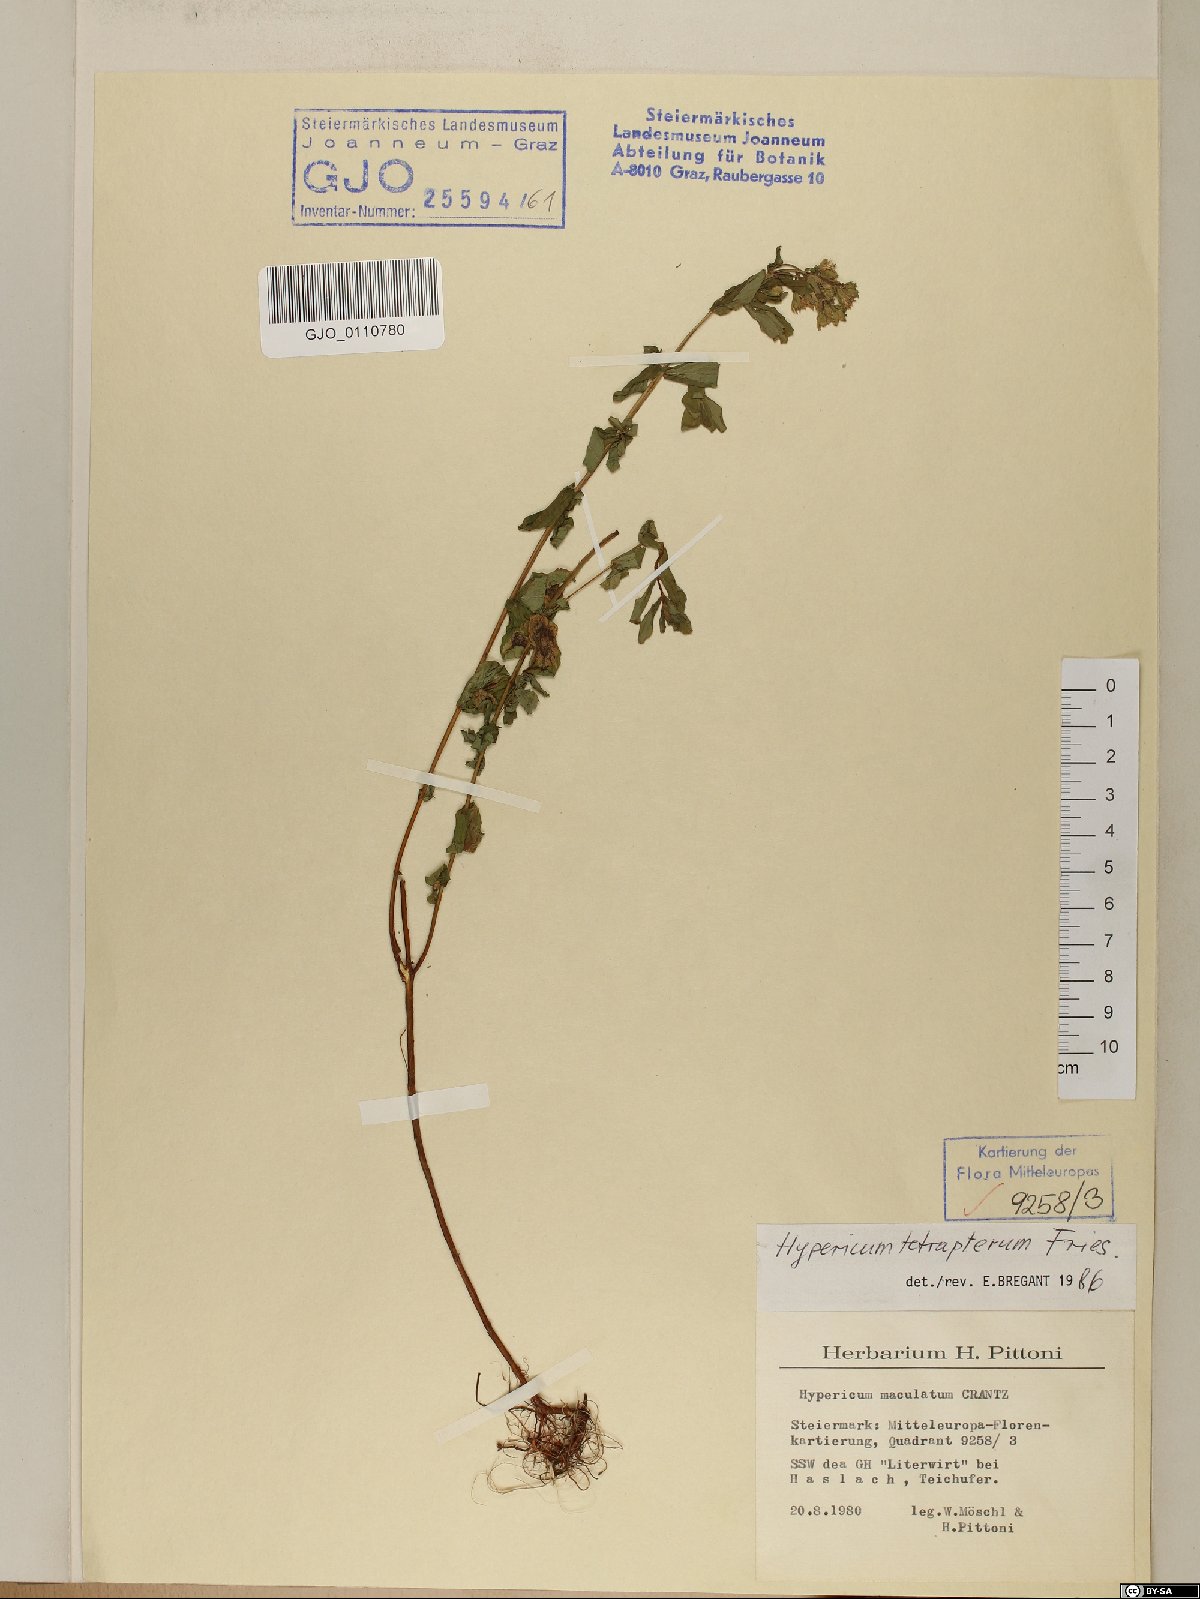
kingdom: Plantae
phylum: Tracheophyta
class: Magnoliopsida
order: Malpighiales
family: Hypericaceae
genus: Hypericum
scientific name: Hypericum tetrapterum
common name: Square-stalked st. john's-wort
